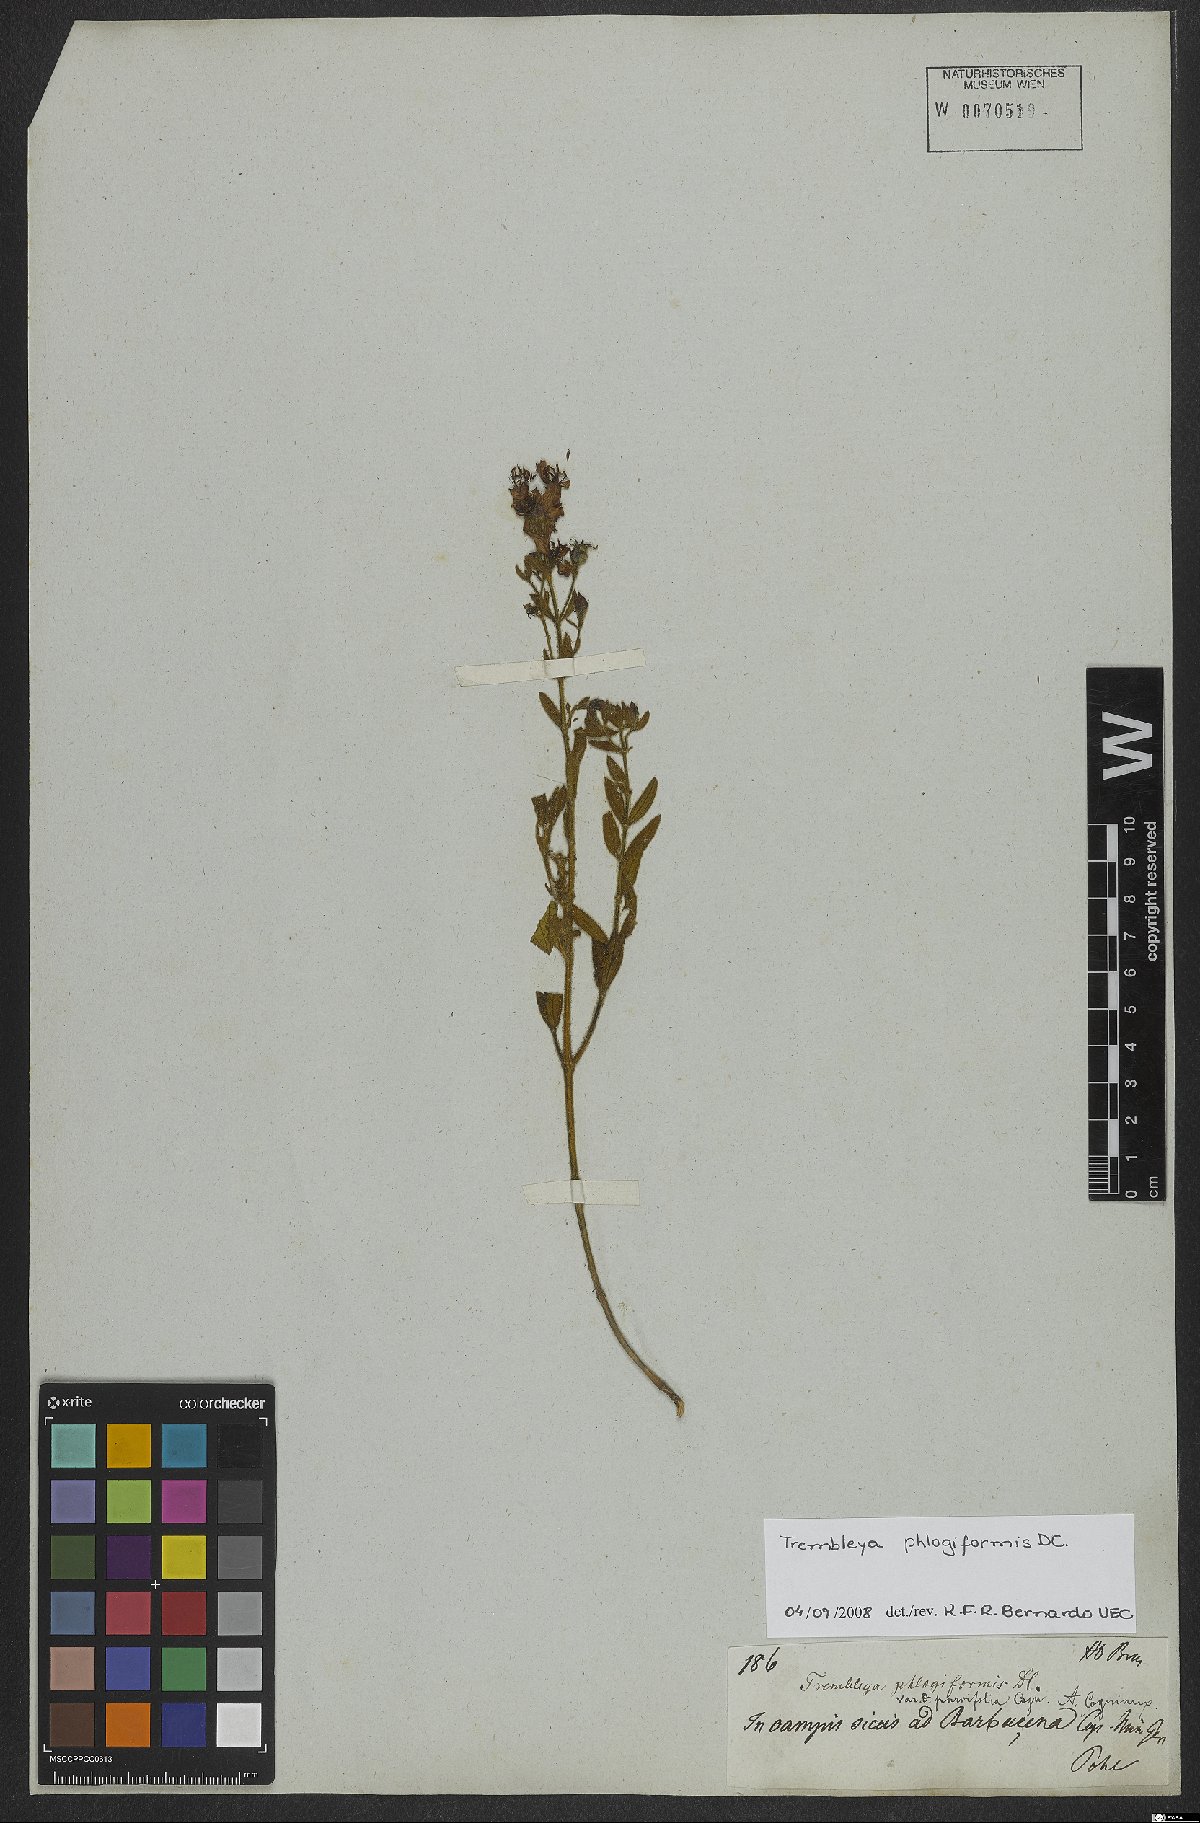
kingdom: Plantae
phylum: Tracheophyta
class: Magnoliopsida
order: Myrtales
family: Melastomataceae
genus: Microlicia
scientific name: Microlicia phlogiformis
